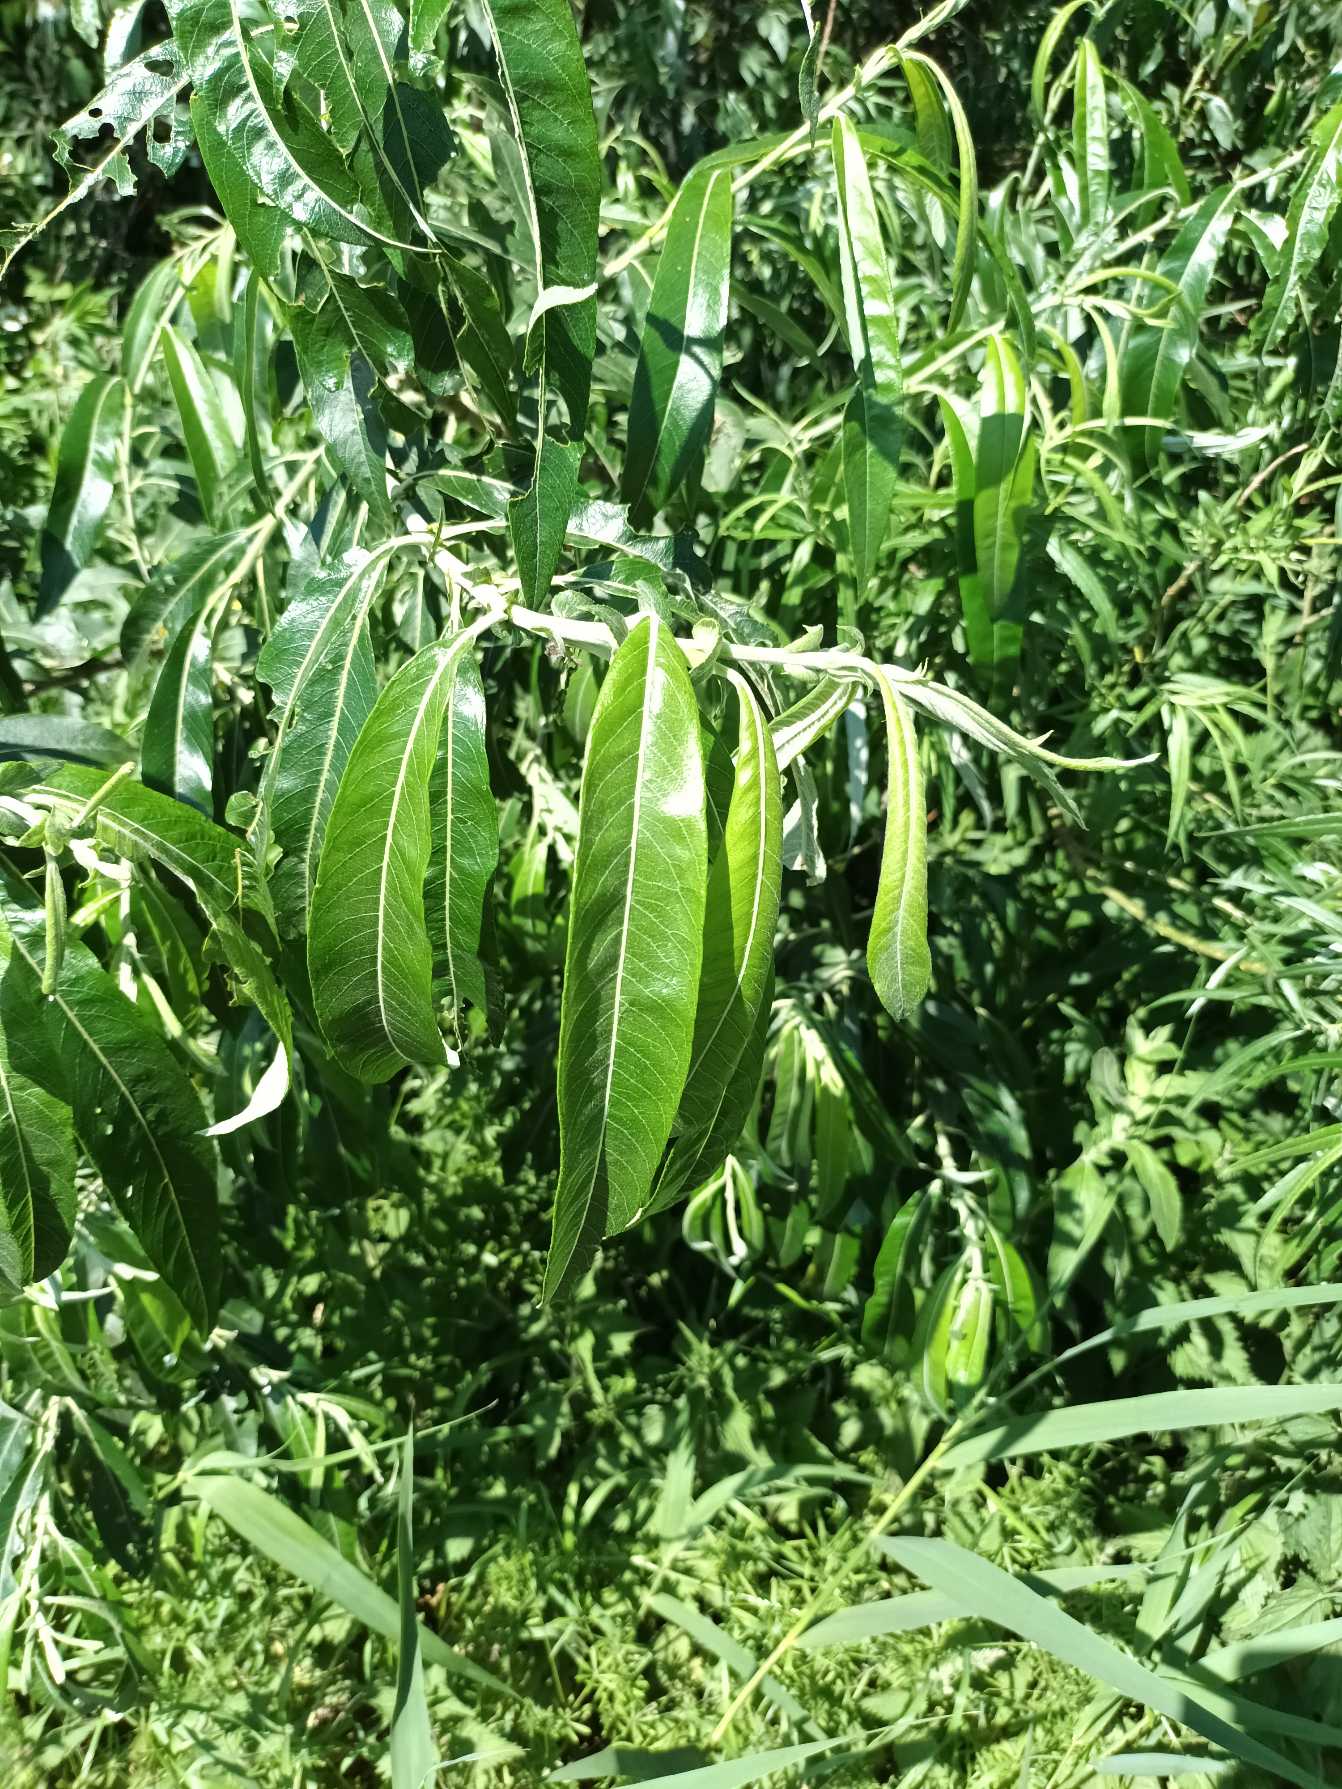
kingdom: Plantae
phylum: Tracheophyta
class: Magnoliopsida
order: Malpighiales
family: Salicaceae
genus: Salix
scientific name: Salix stipularis
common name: Langbladet pil
